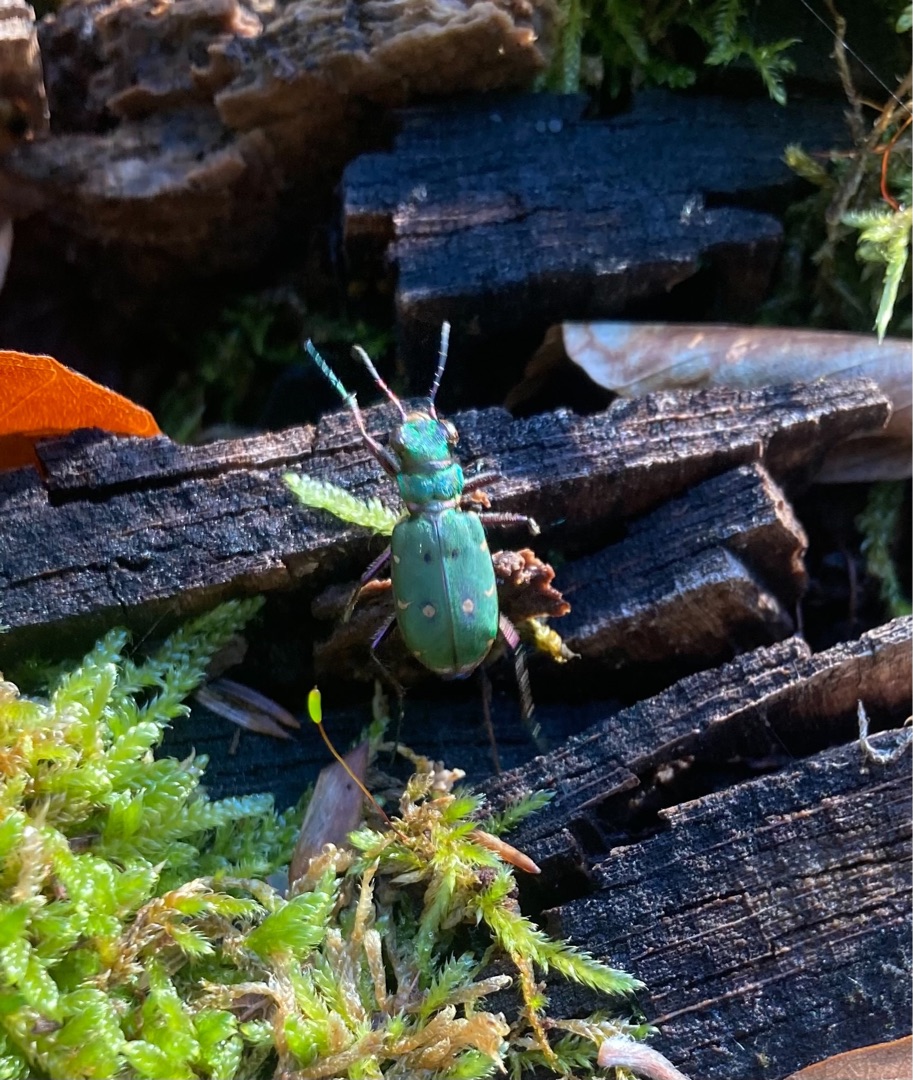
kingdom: Animalia
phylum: Arthropoda
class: Insecta
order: Coleoptera
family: Carabidae
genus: Cicindela
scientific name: Cicindela campestris
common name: Grøn sandspringer
